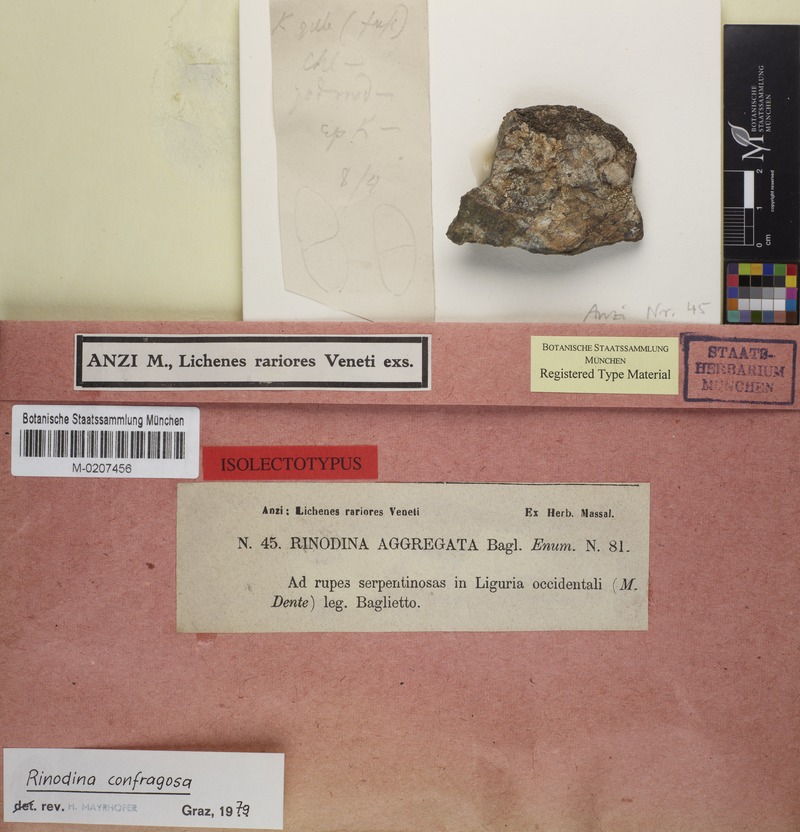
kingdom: Fungi
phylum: Ascomycota
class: Lecanoromycetes
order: Caliciales
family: Physciaceae
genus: Rinodina
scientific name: Rinodina confragosa
